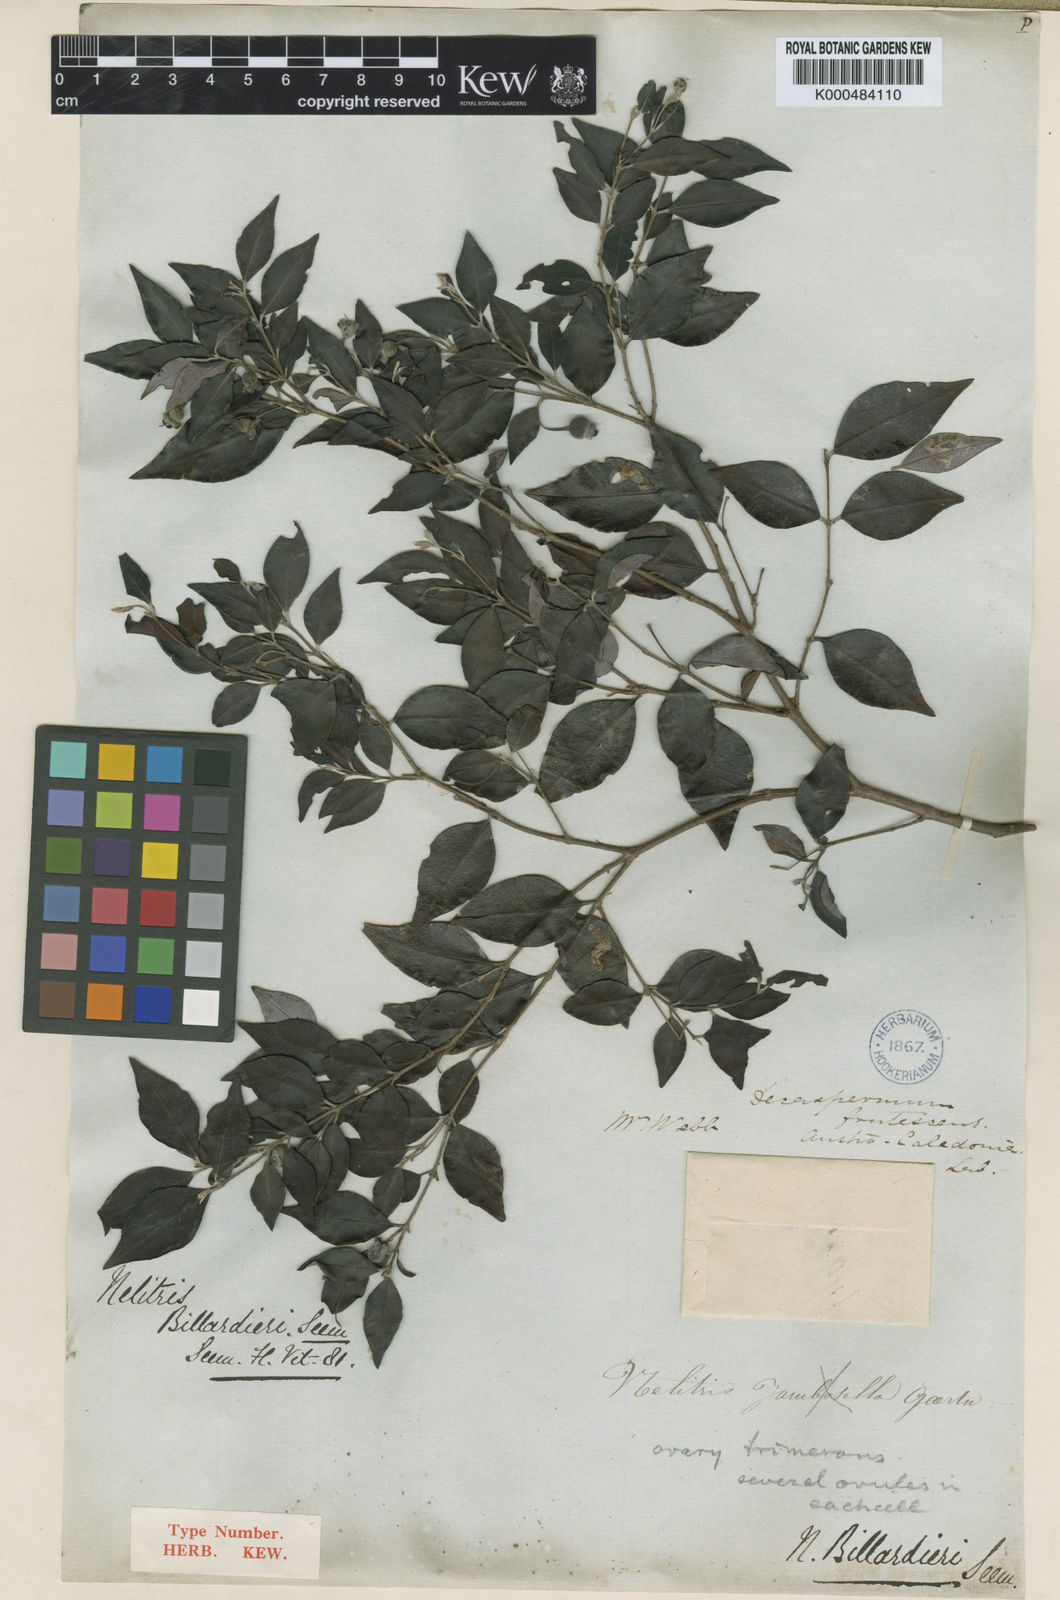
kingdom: Plantae
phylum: Tracheophyta
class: Magnoliopsida
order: Myrtales
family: Myrtaceae
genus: Uromyrtus
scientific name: Uromyrtus billardierei
